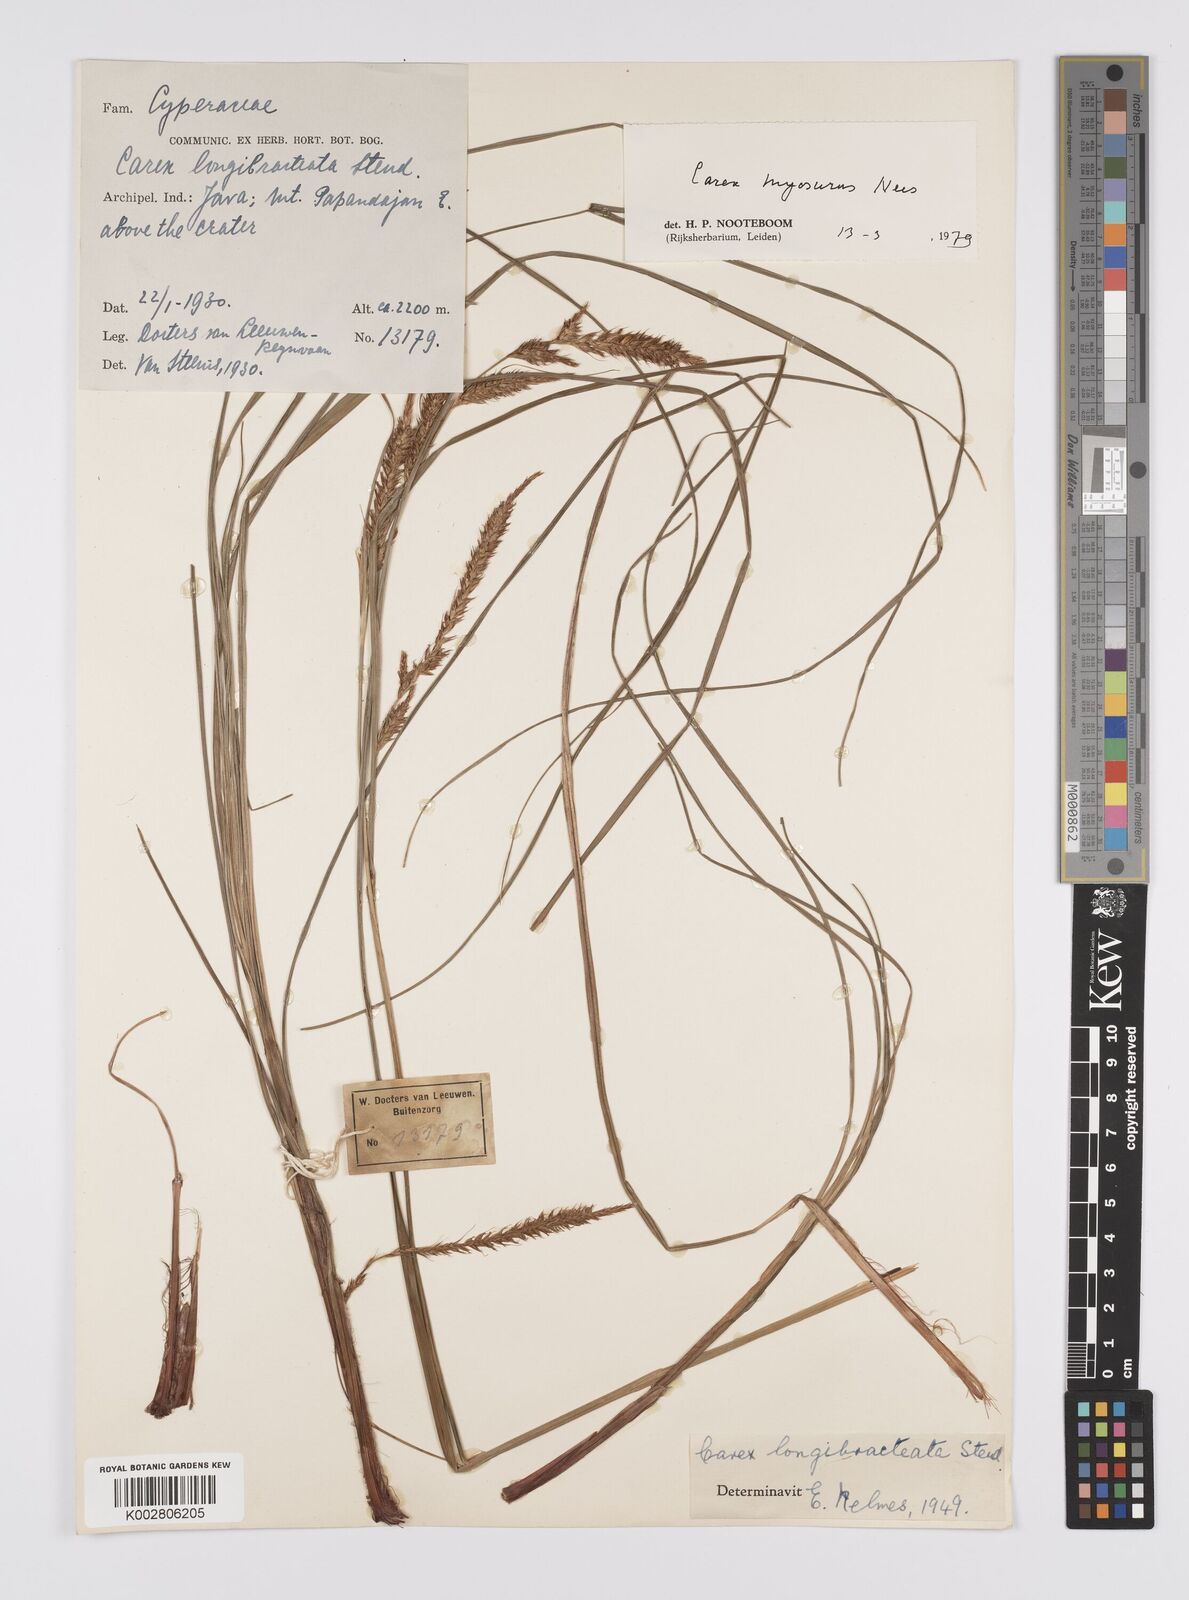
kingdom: Plantae
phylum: Tracheophyta
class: Liliopsida
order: Poales
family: Cyperaceae
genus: Carex
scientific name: Carex myosurus
